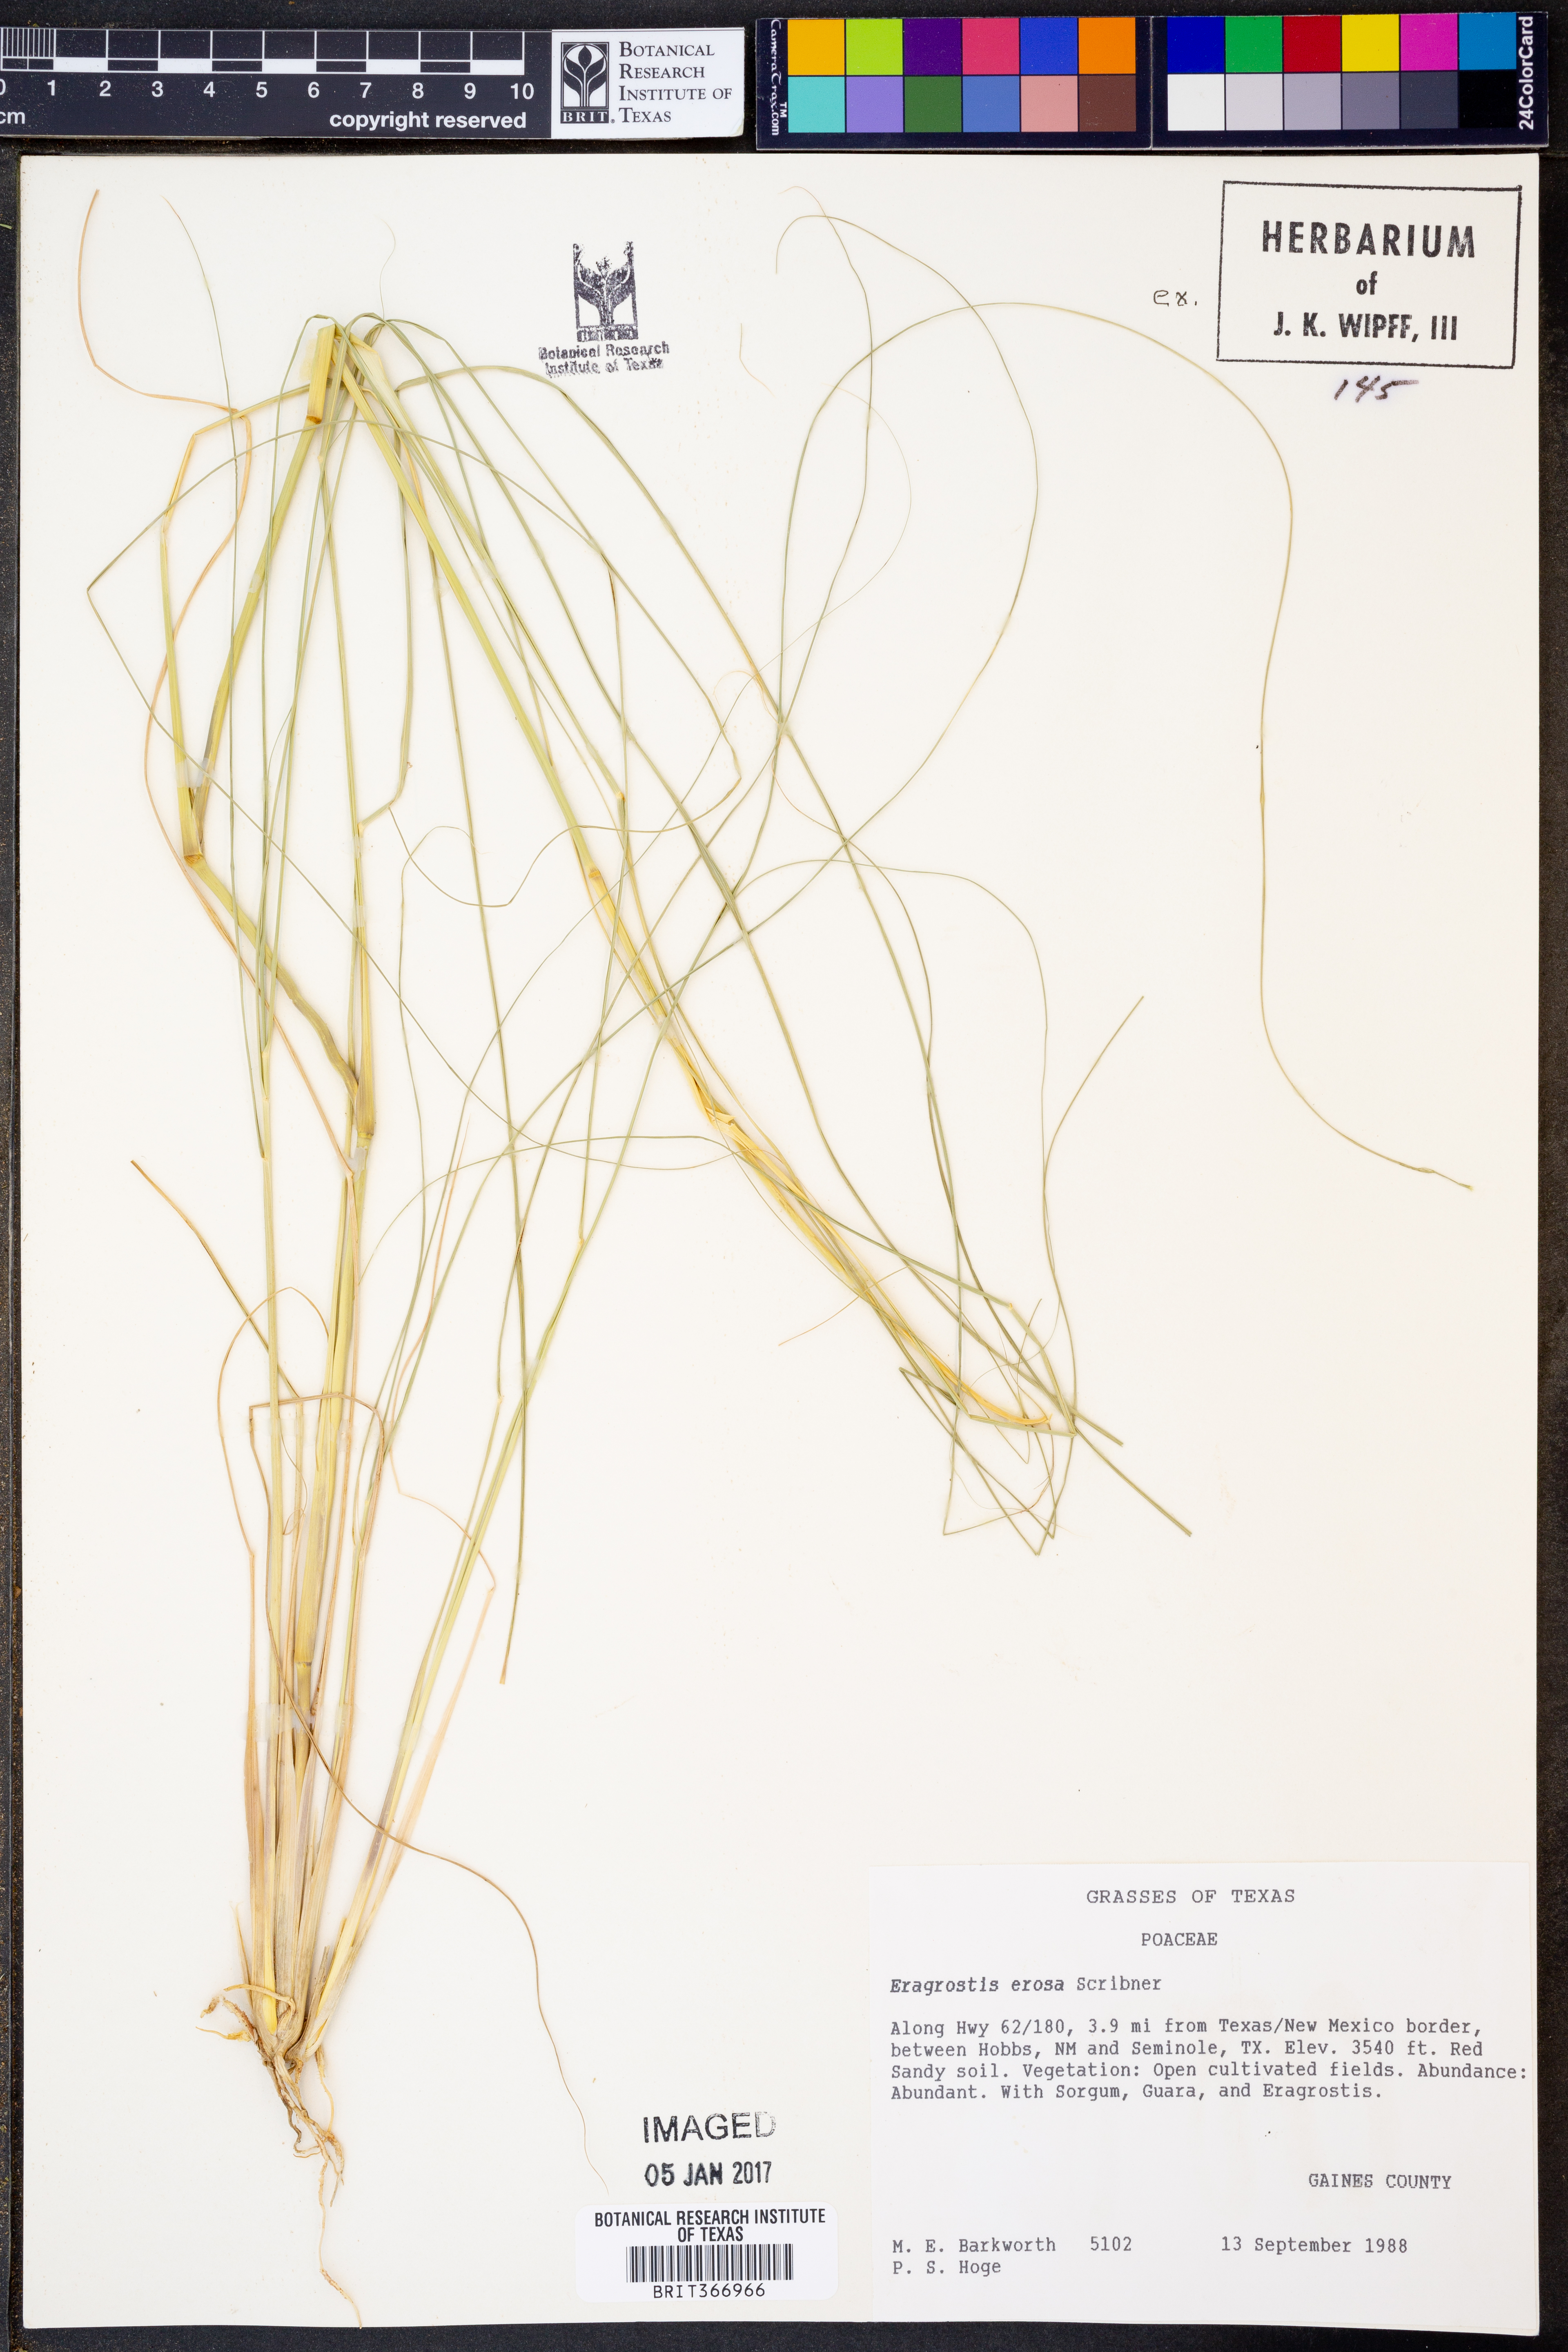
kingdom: Plantae
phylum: Tracheophyta
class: Liliopsida
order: Poales
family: Poaceae
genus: Eragrostis
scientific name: Eragrostis erosa
